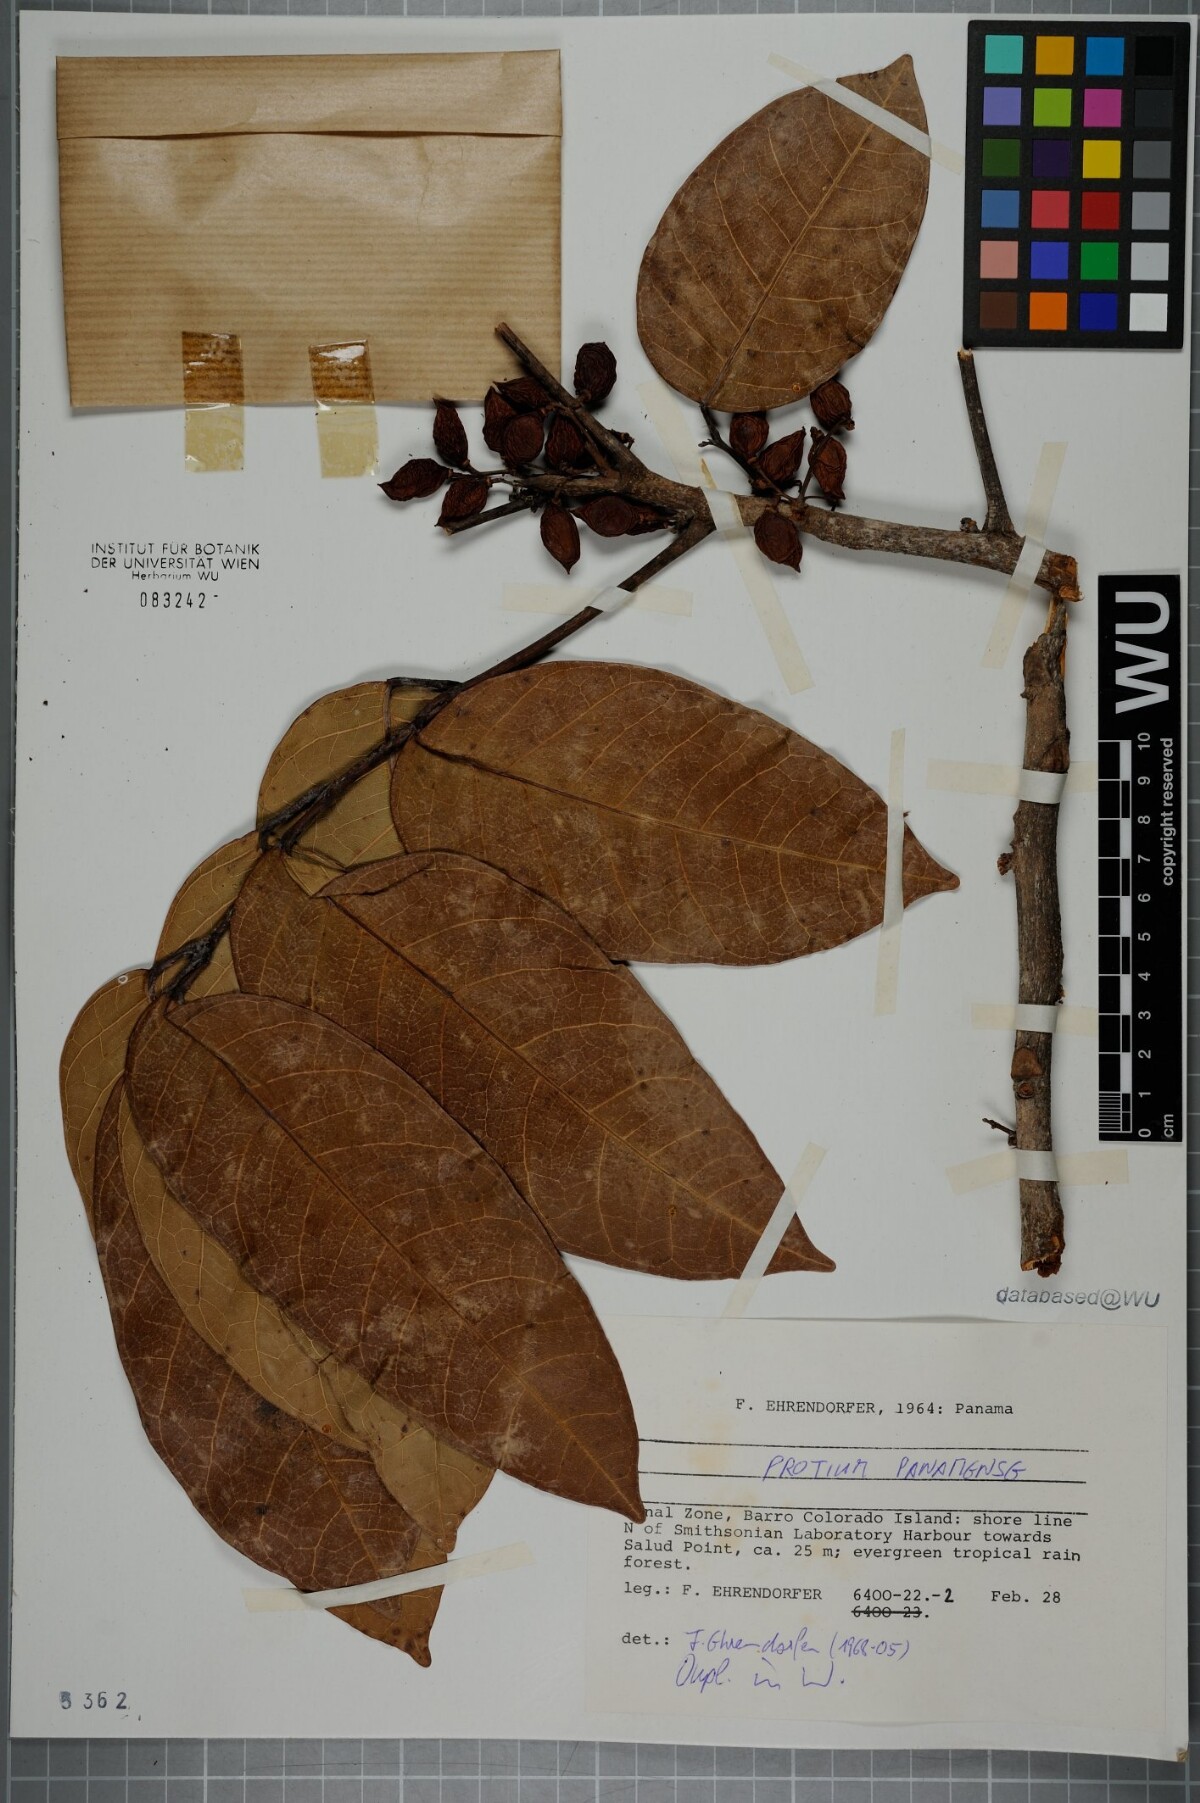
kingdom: Plantae
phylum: Tracheophyta
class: Magnoliopsida
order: Sapindales
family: Burseraceae
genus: Protium
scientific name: Protium panamense
